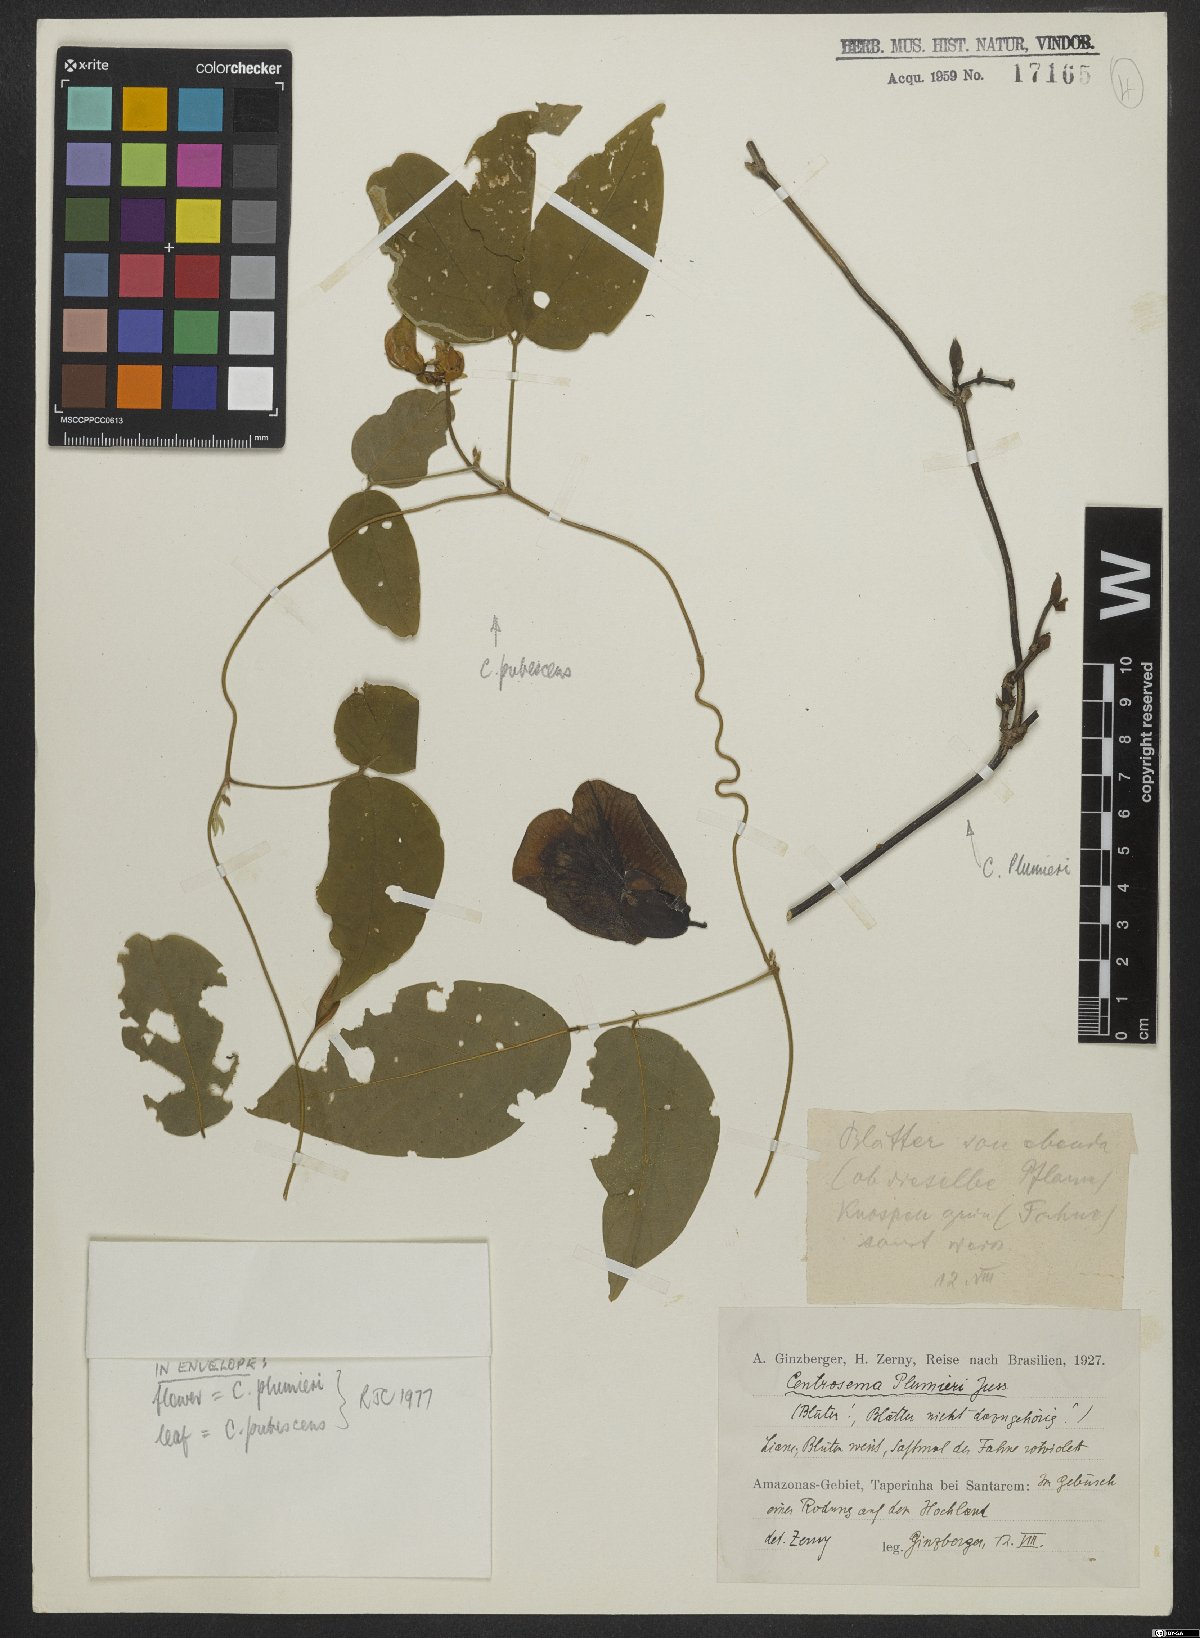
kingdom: Plantae
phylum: Tracheophyta
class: Magnoliopsida
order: Fabales
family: Fabaceae
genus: Centrosema
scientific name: Centrosema plumieri
